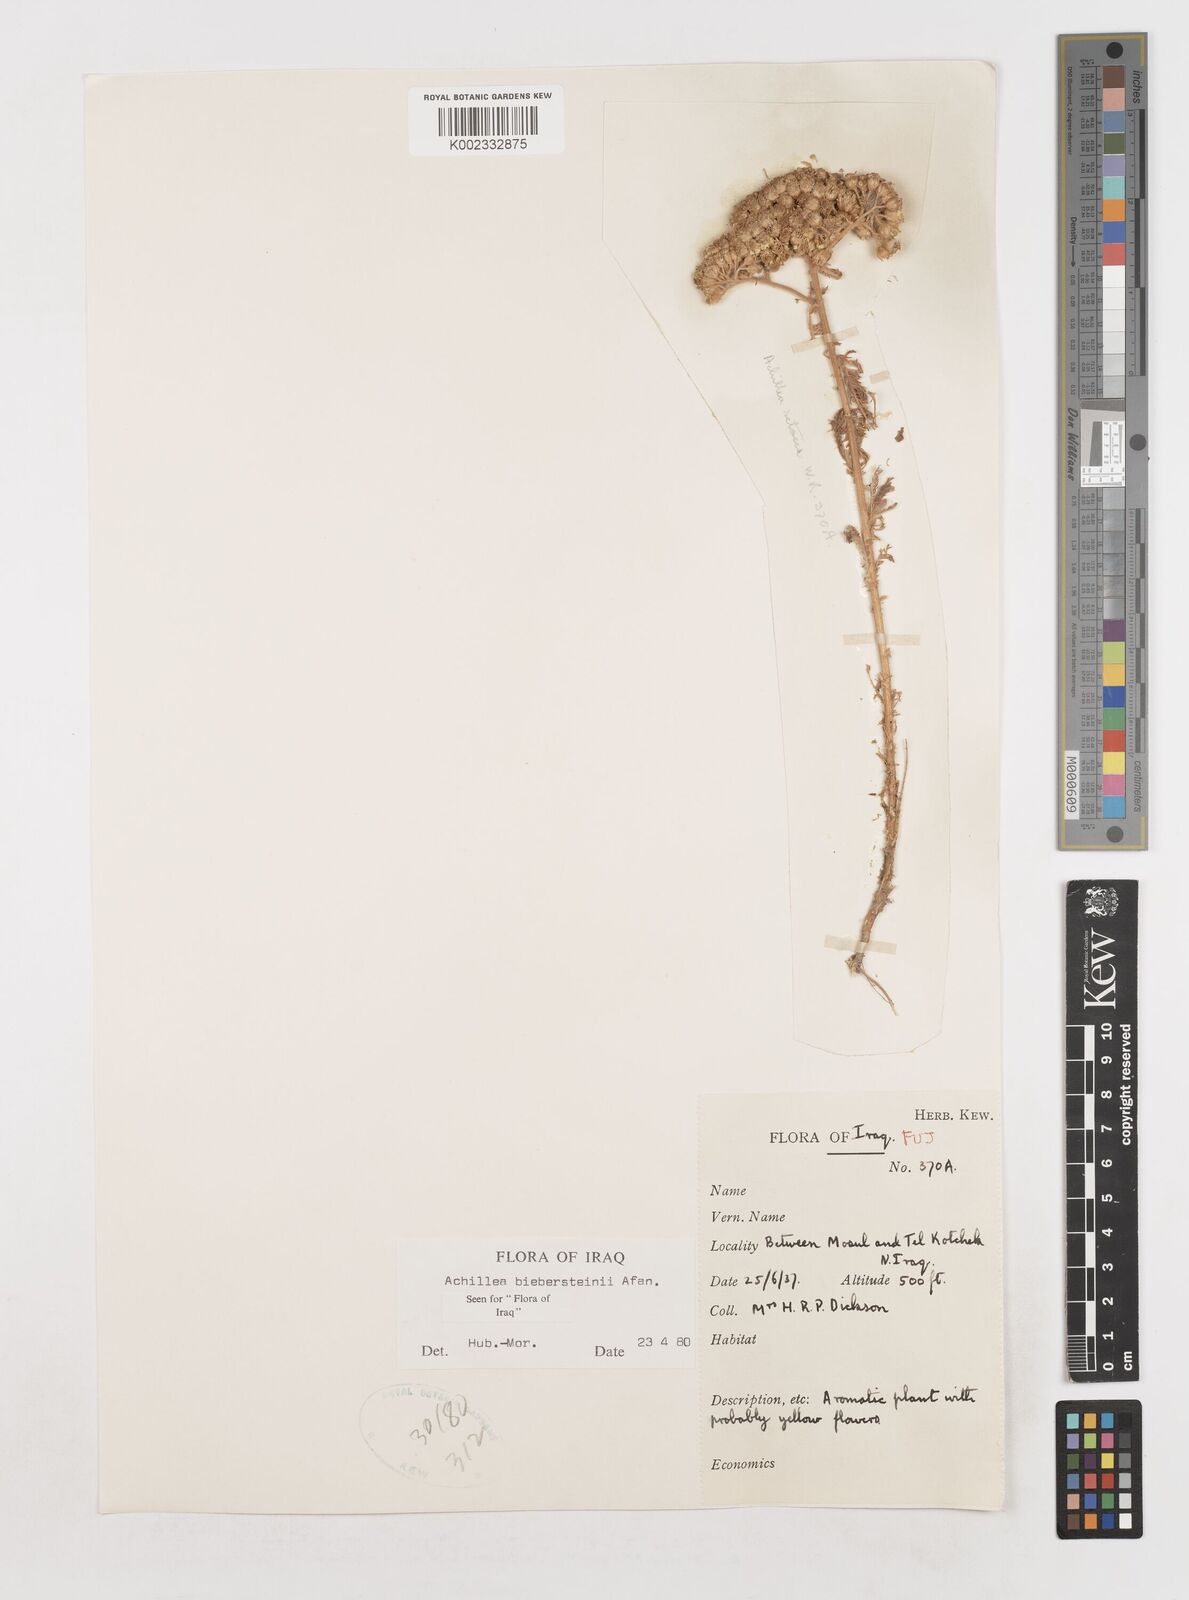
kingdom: Plantae
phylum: Tracheophyta
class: Magnoliopsida
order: Asterales
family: Asteraceae
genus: Achillea
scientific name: Achillea arabica
